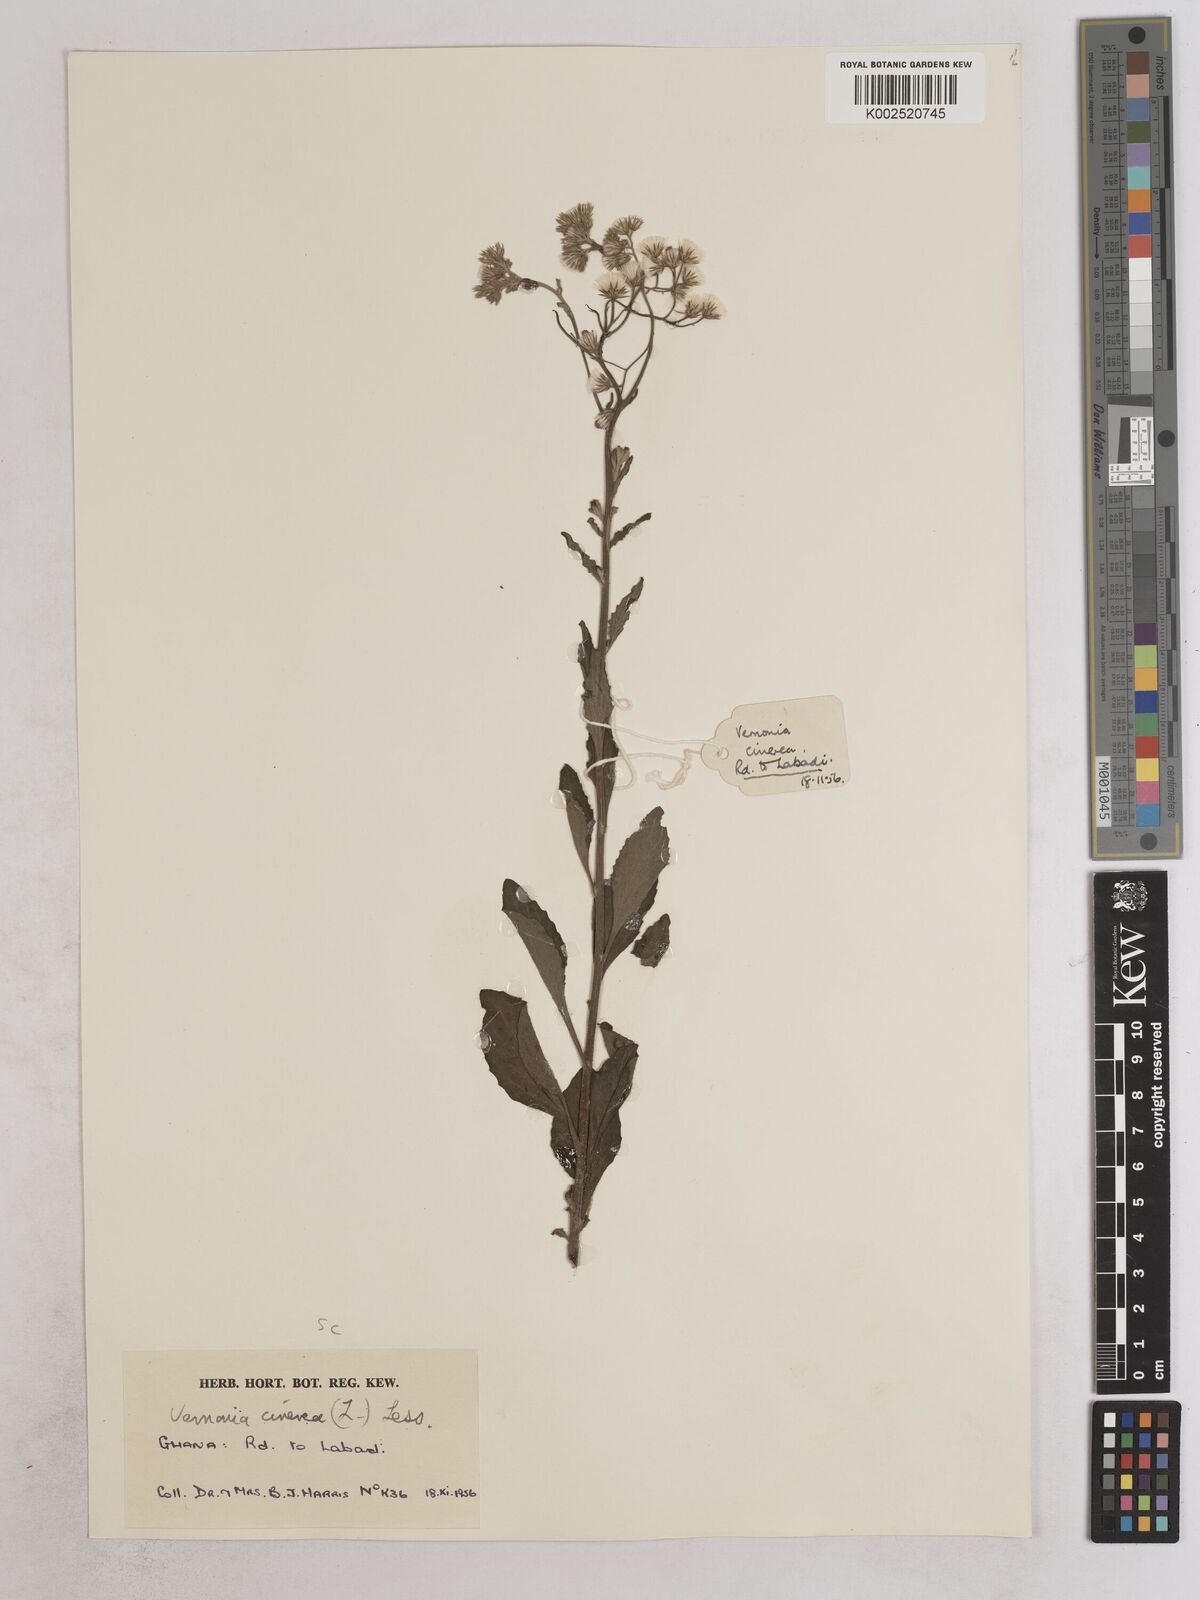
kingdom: Plantae
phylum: Tracheophyta
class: Magnoliopsida
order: Asterales
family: Asteraceae
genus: Cyanthillium
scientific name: Cyanthillium cinereum
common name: Little ironweed
